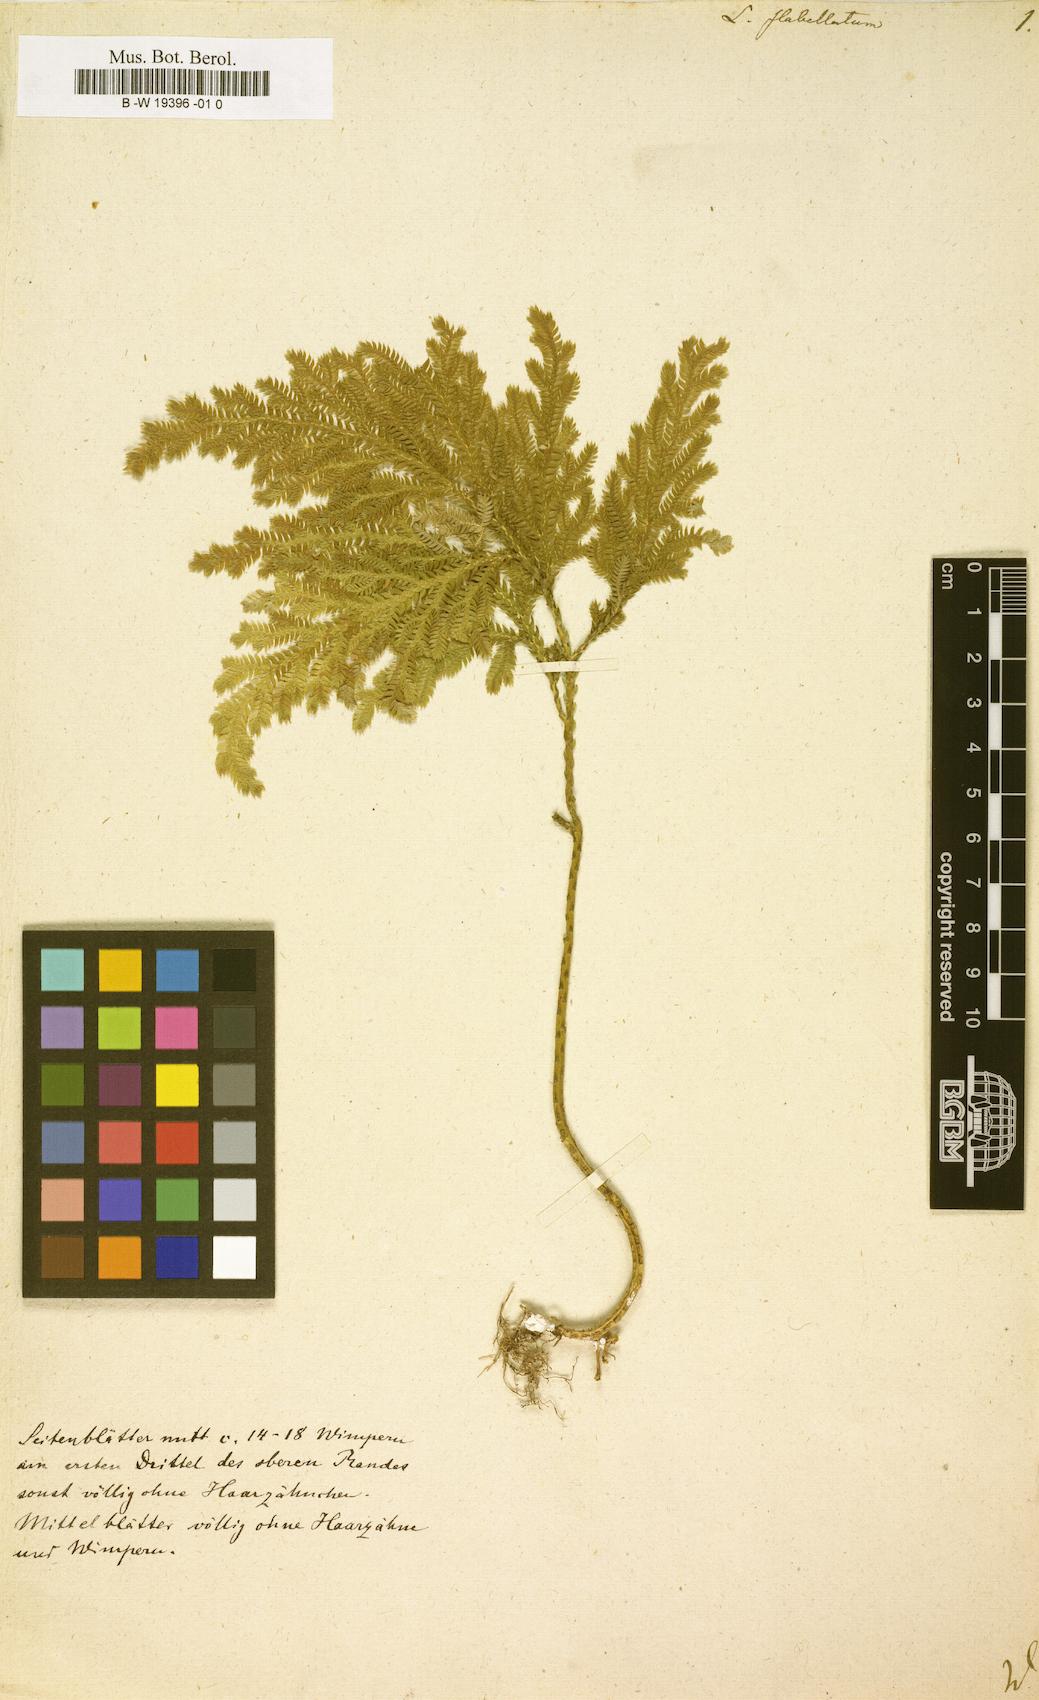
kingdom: Plantae
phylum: Tracheophyta
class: Lycopodiopsida
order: Selaginellales
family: Selaginellaceae
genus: Selaginella
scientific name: Selaginella
